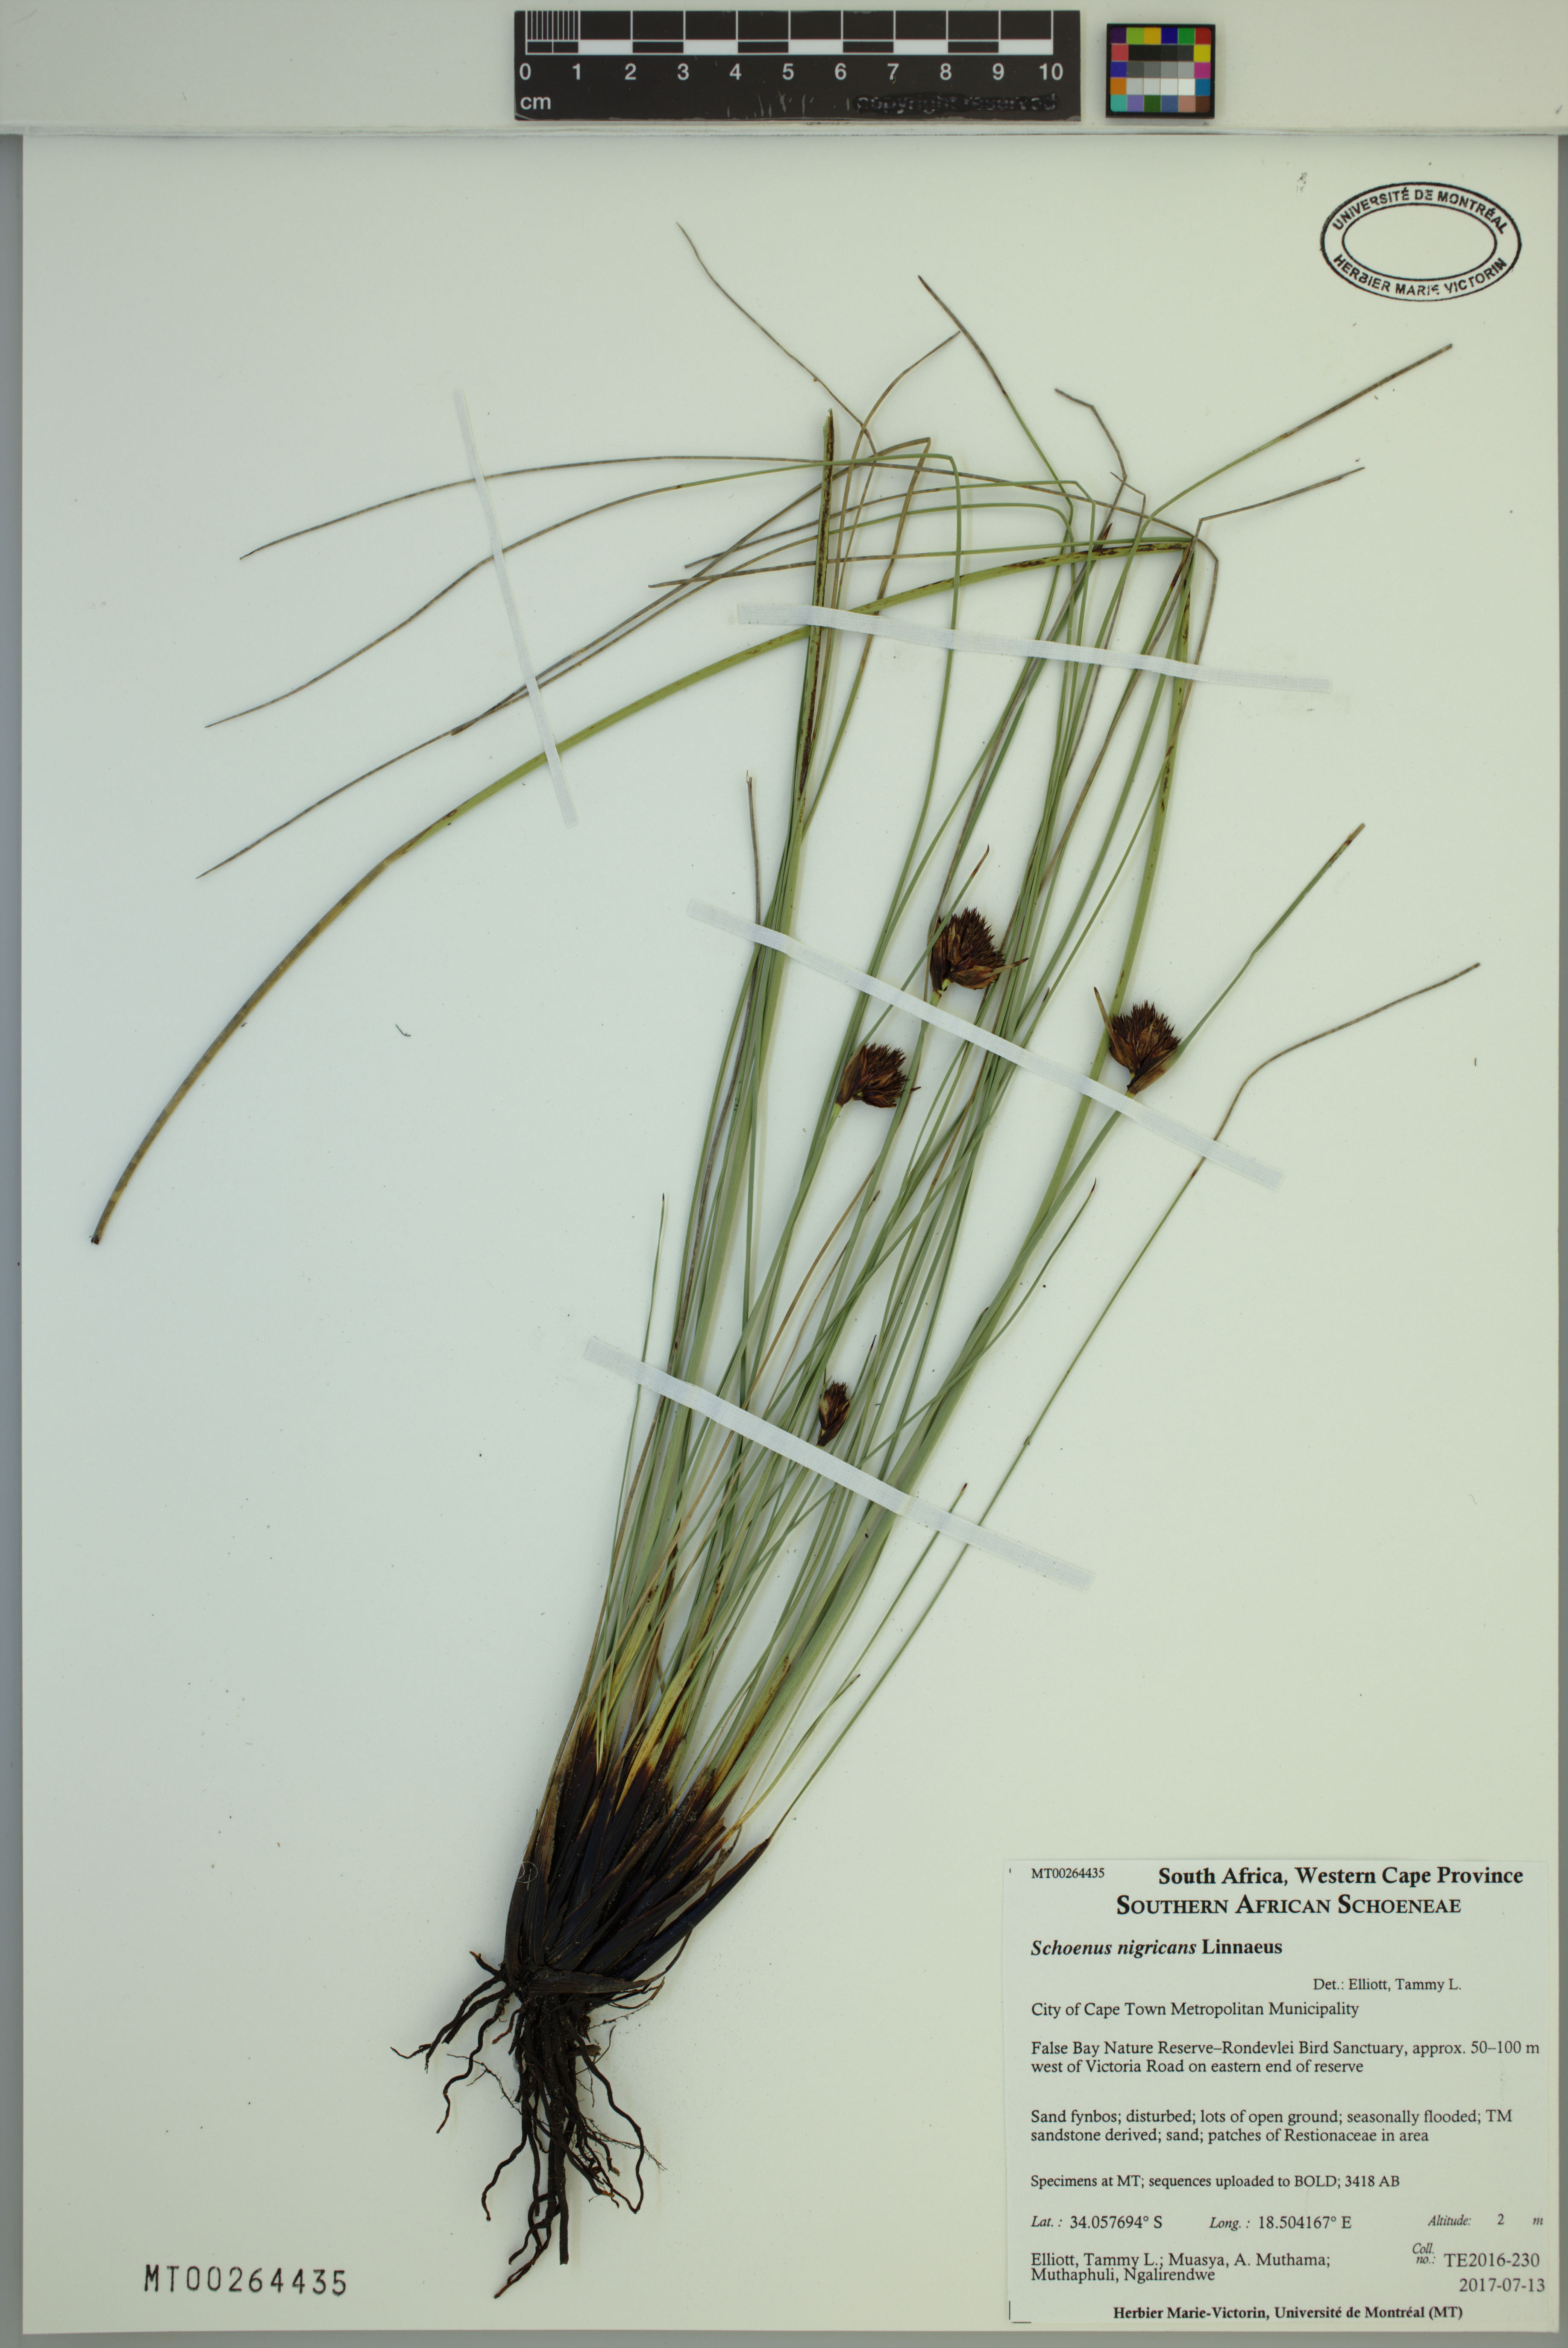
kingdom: Plantae
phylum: Tracheophyta
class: Liliopsida
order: Poales
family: Cyperaceae
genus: Schoenus
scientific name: Schoenus nigricans
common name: Black bog-rush
